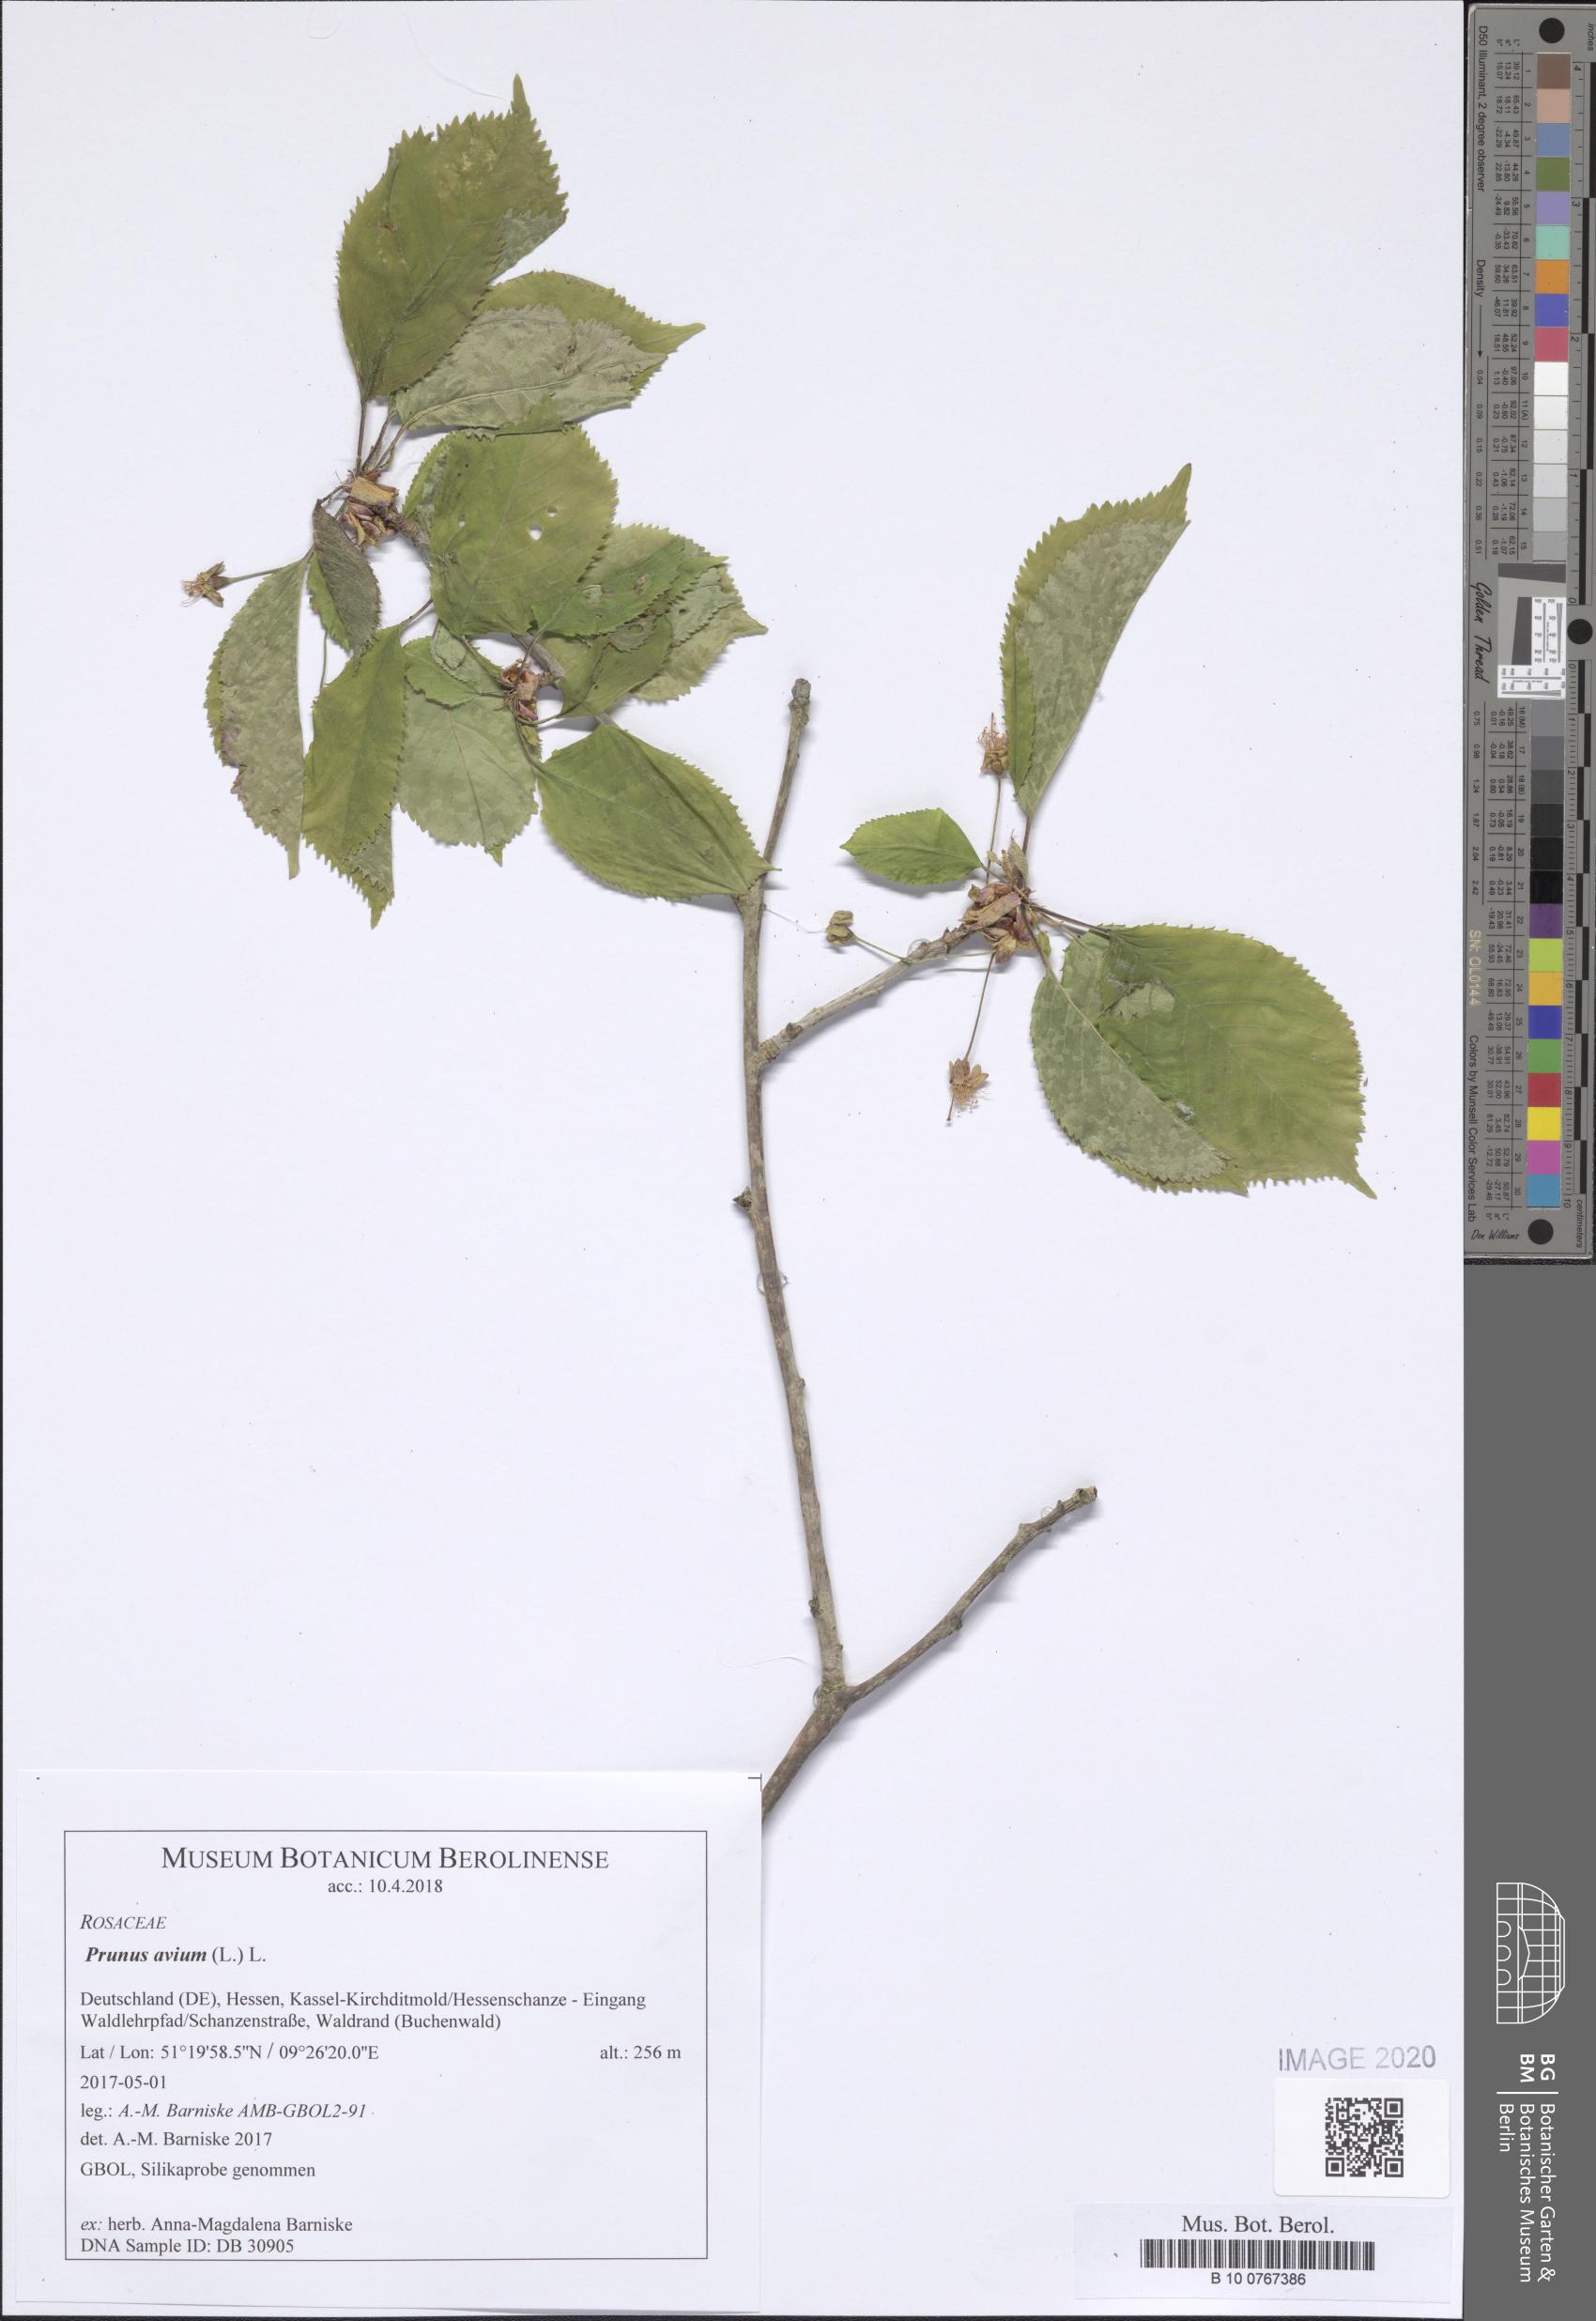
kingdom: Plantae
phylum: Tracheophyta
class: Magnoliopsida
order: Rosales
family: Rosaceae
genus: Prunus
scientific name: Prunus avium
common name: Sweet cherry
